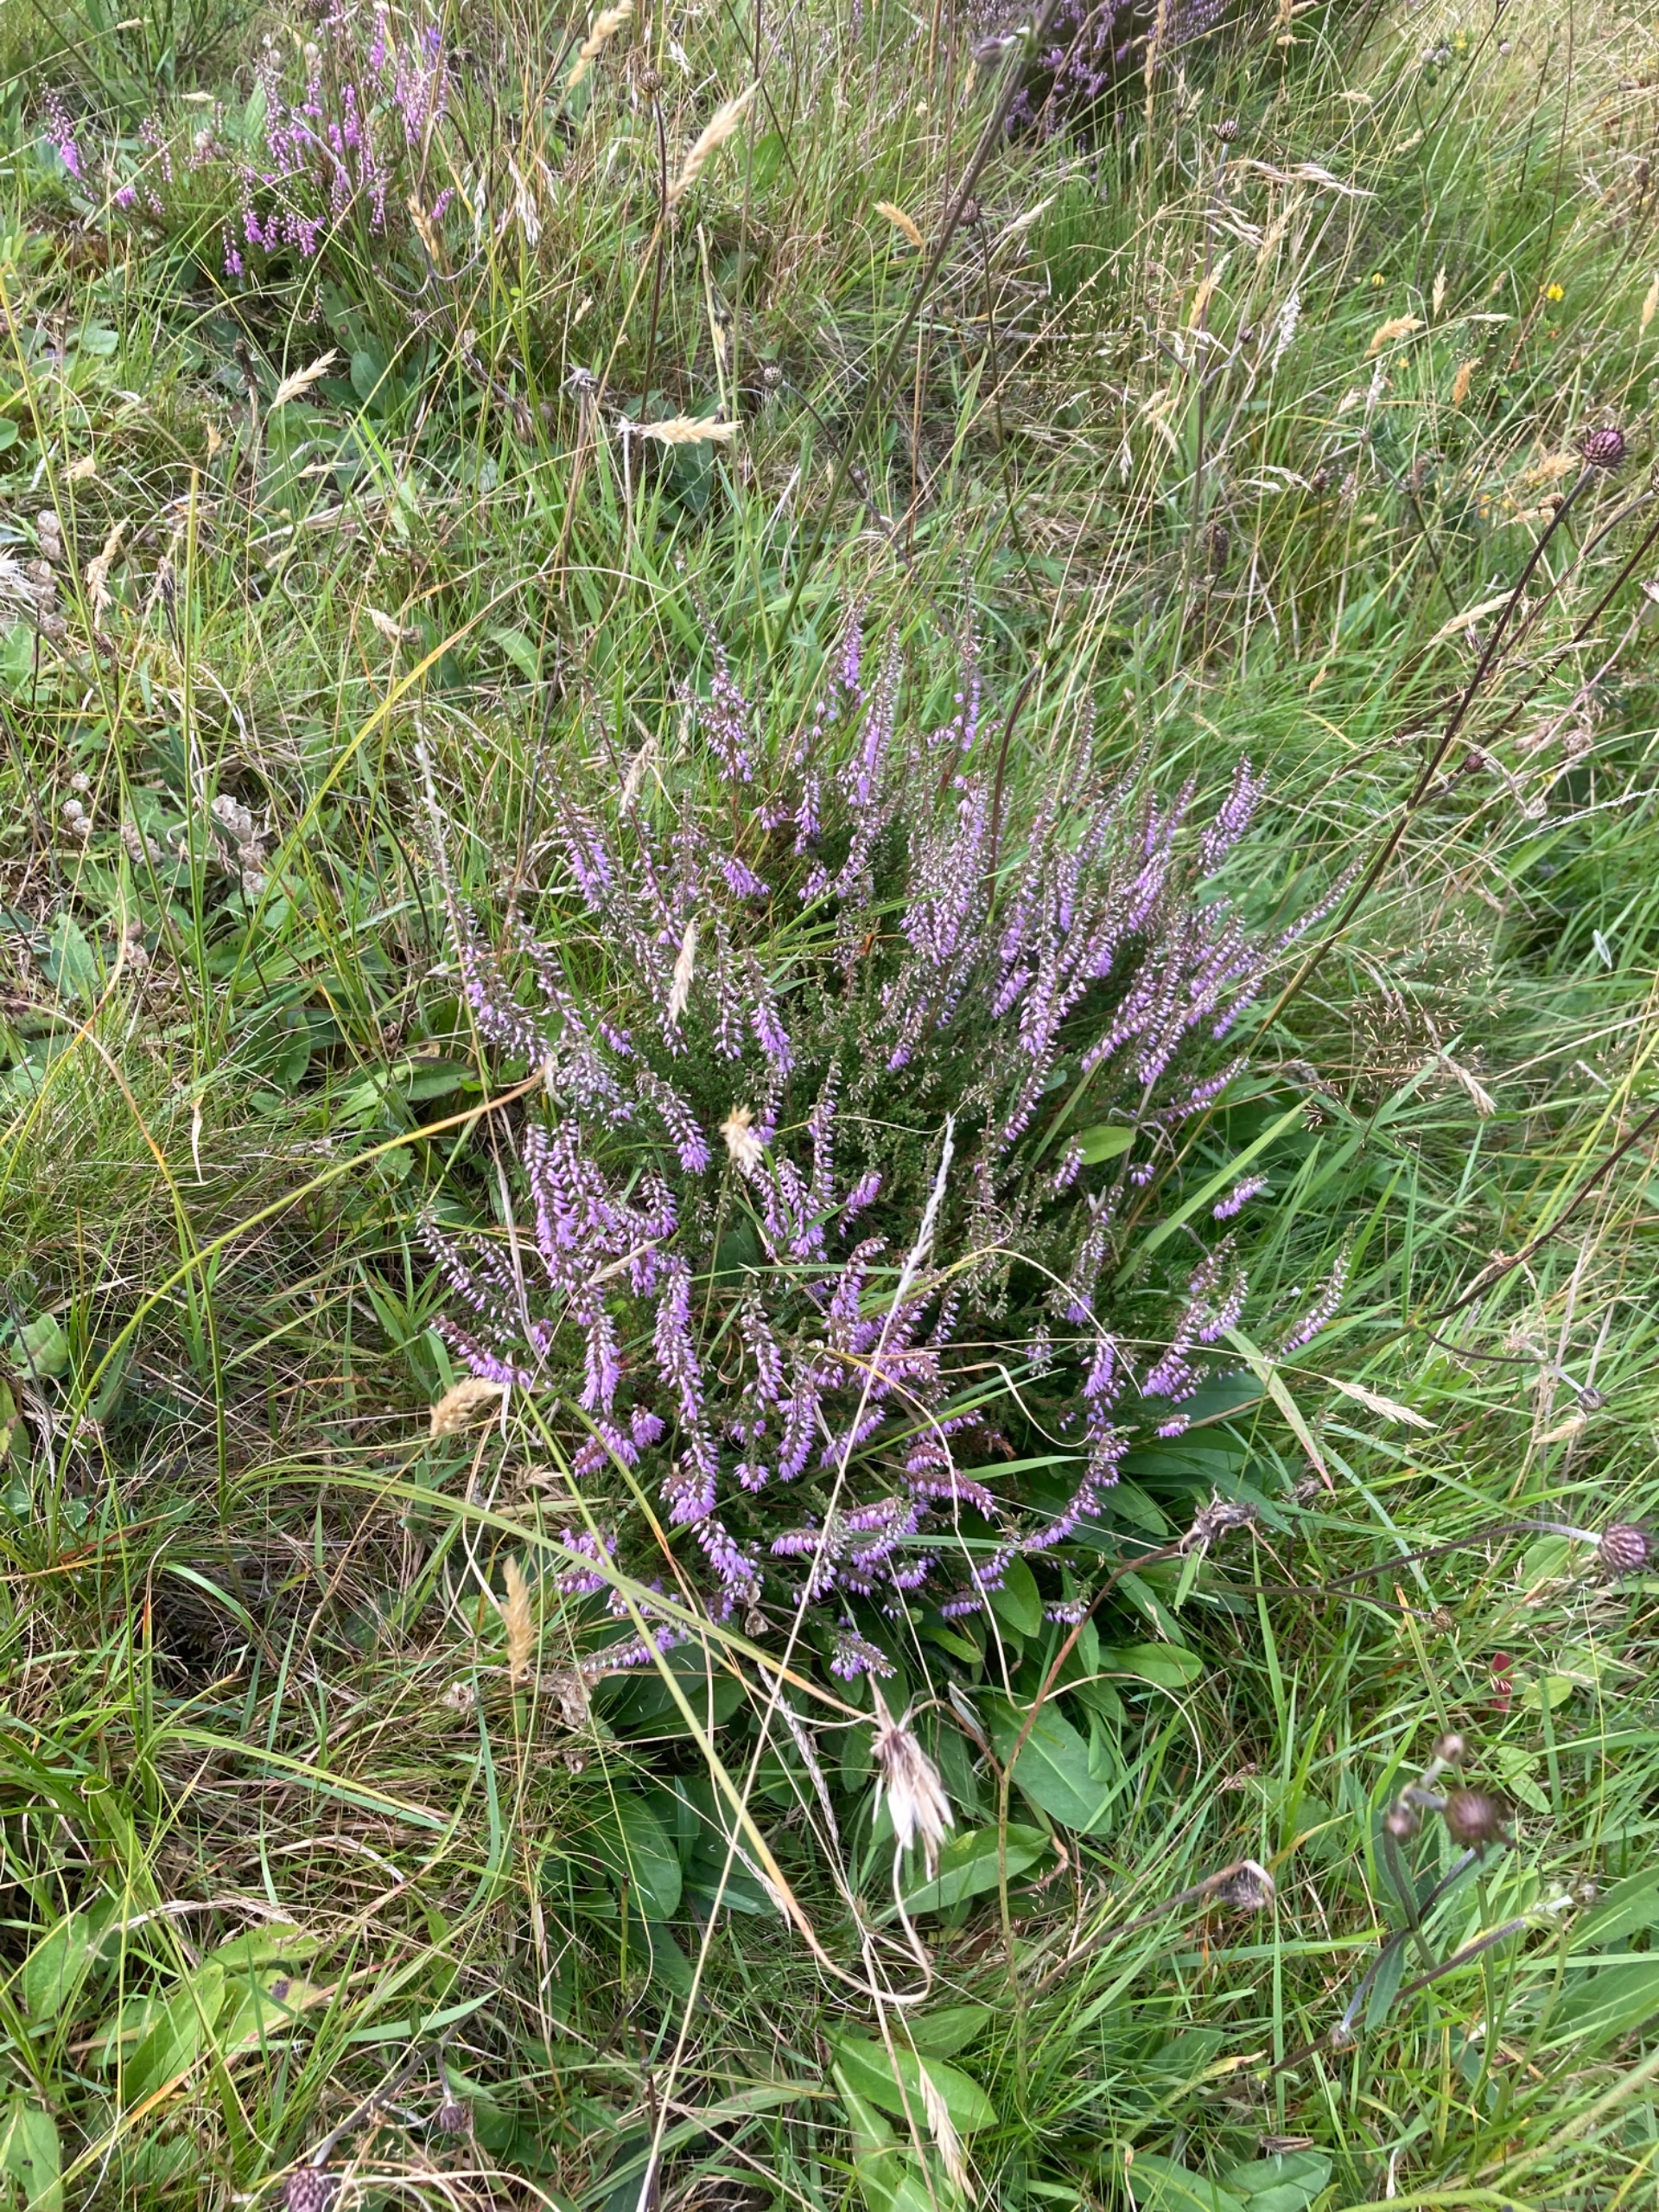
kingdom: Plantae
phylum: Tracheophyta
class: Magnoliopsida
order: Ericales
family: Ericaceae
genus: Calluna
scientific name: Calluna vulgaris
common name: Hedelyng
